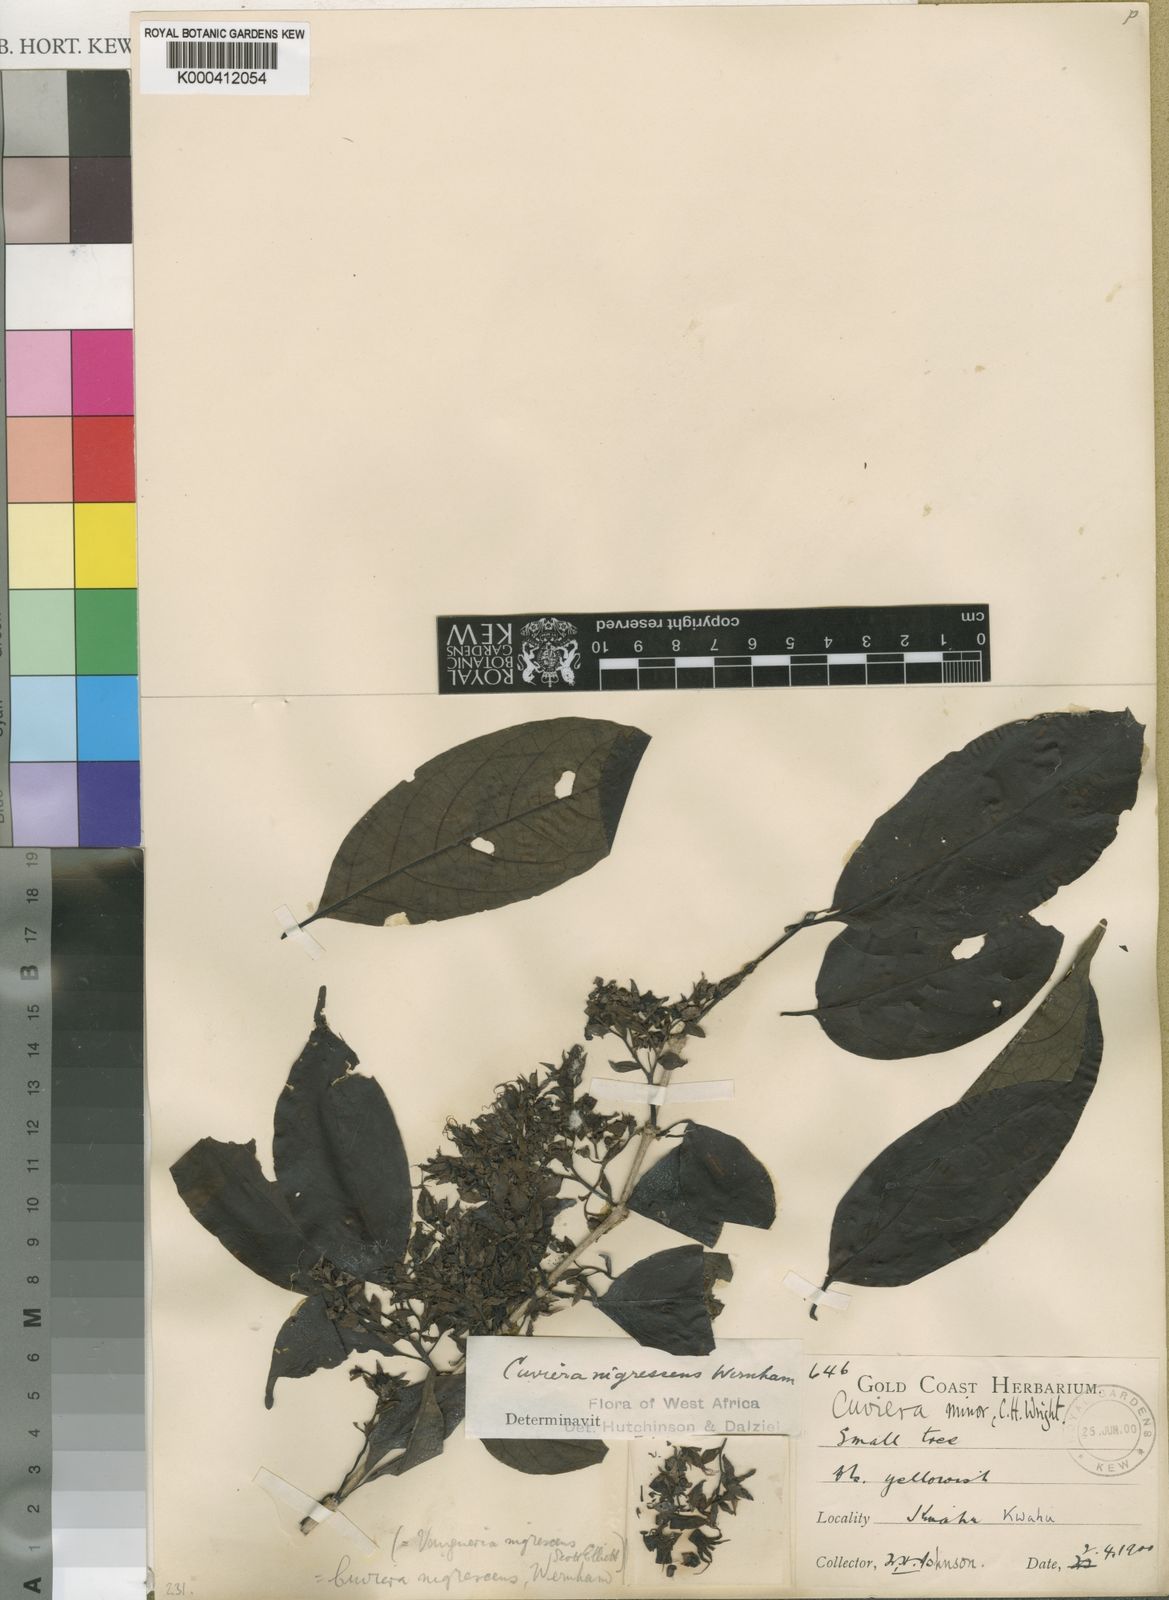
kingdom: Plantae
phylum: Tracheophyta
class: Magnoliopsida
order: Gentianales
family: Rubiaceae
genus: Cuviera
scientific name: Cuviera nigrescens
